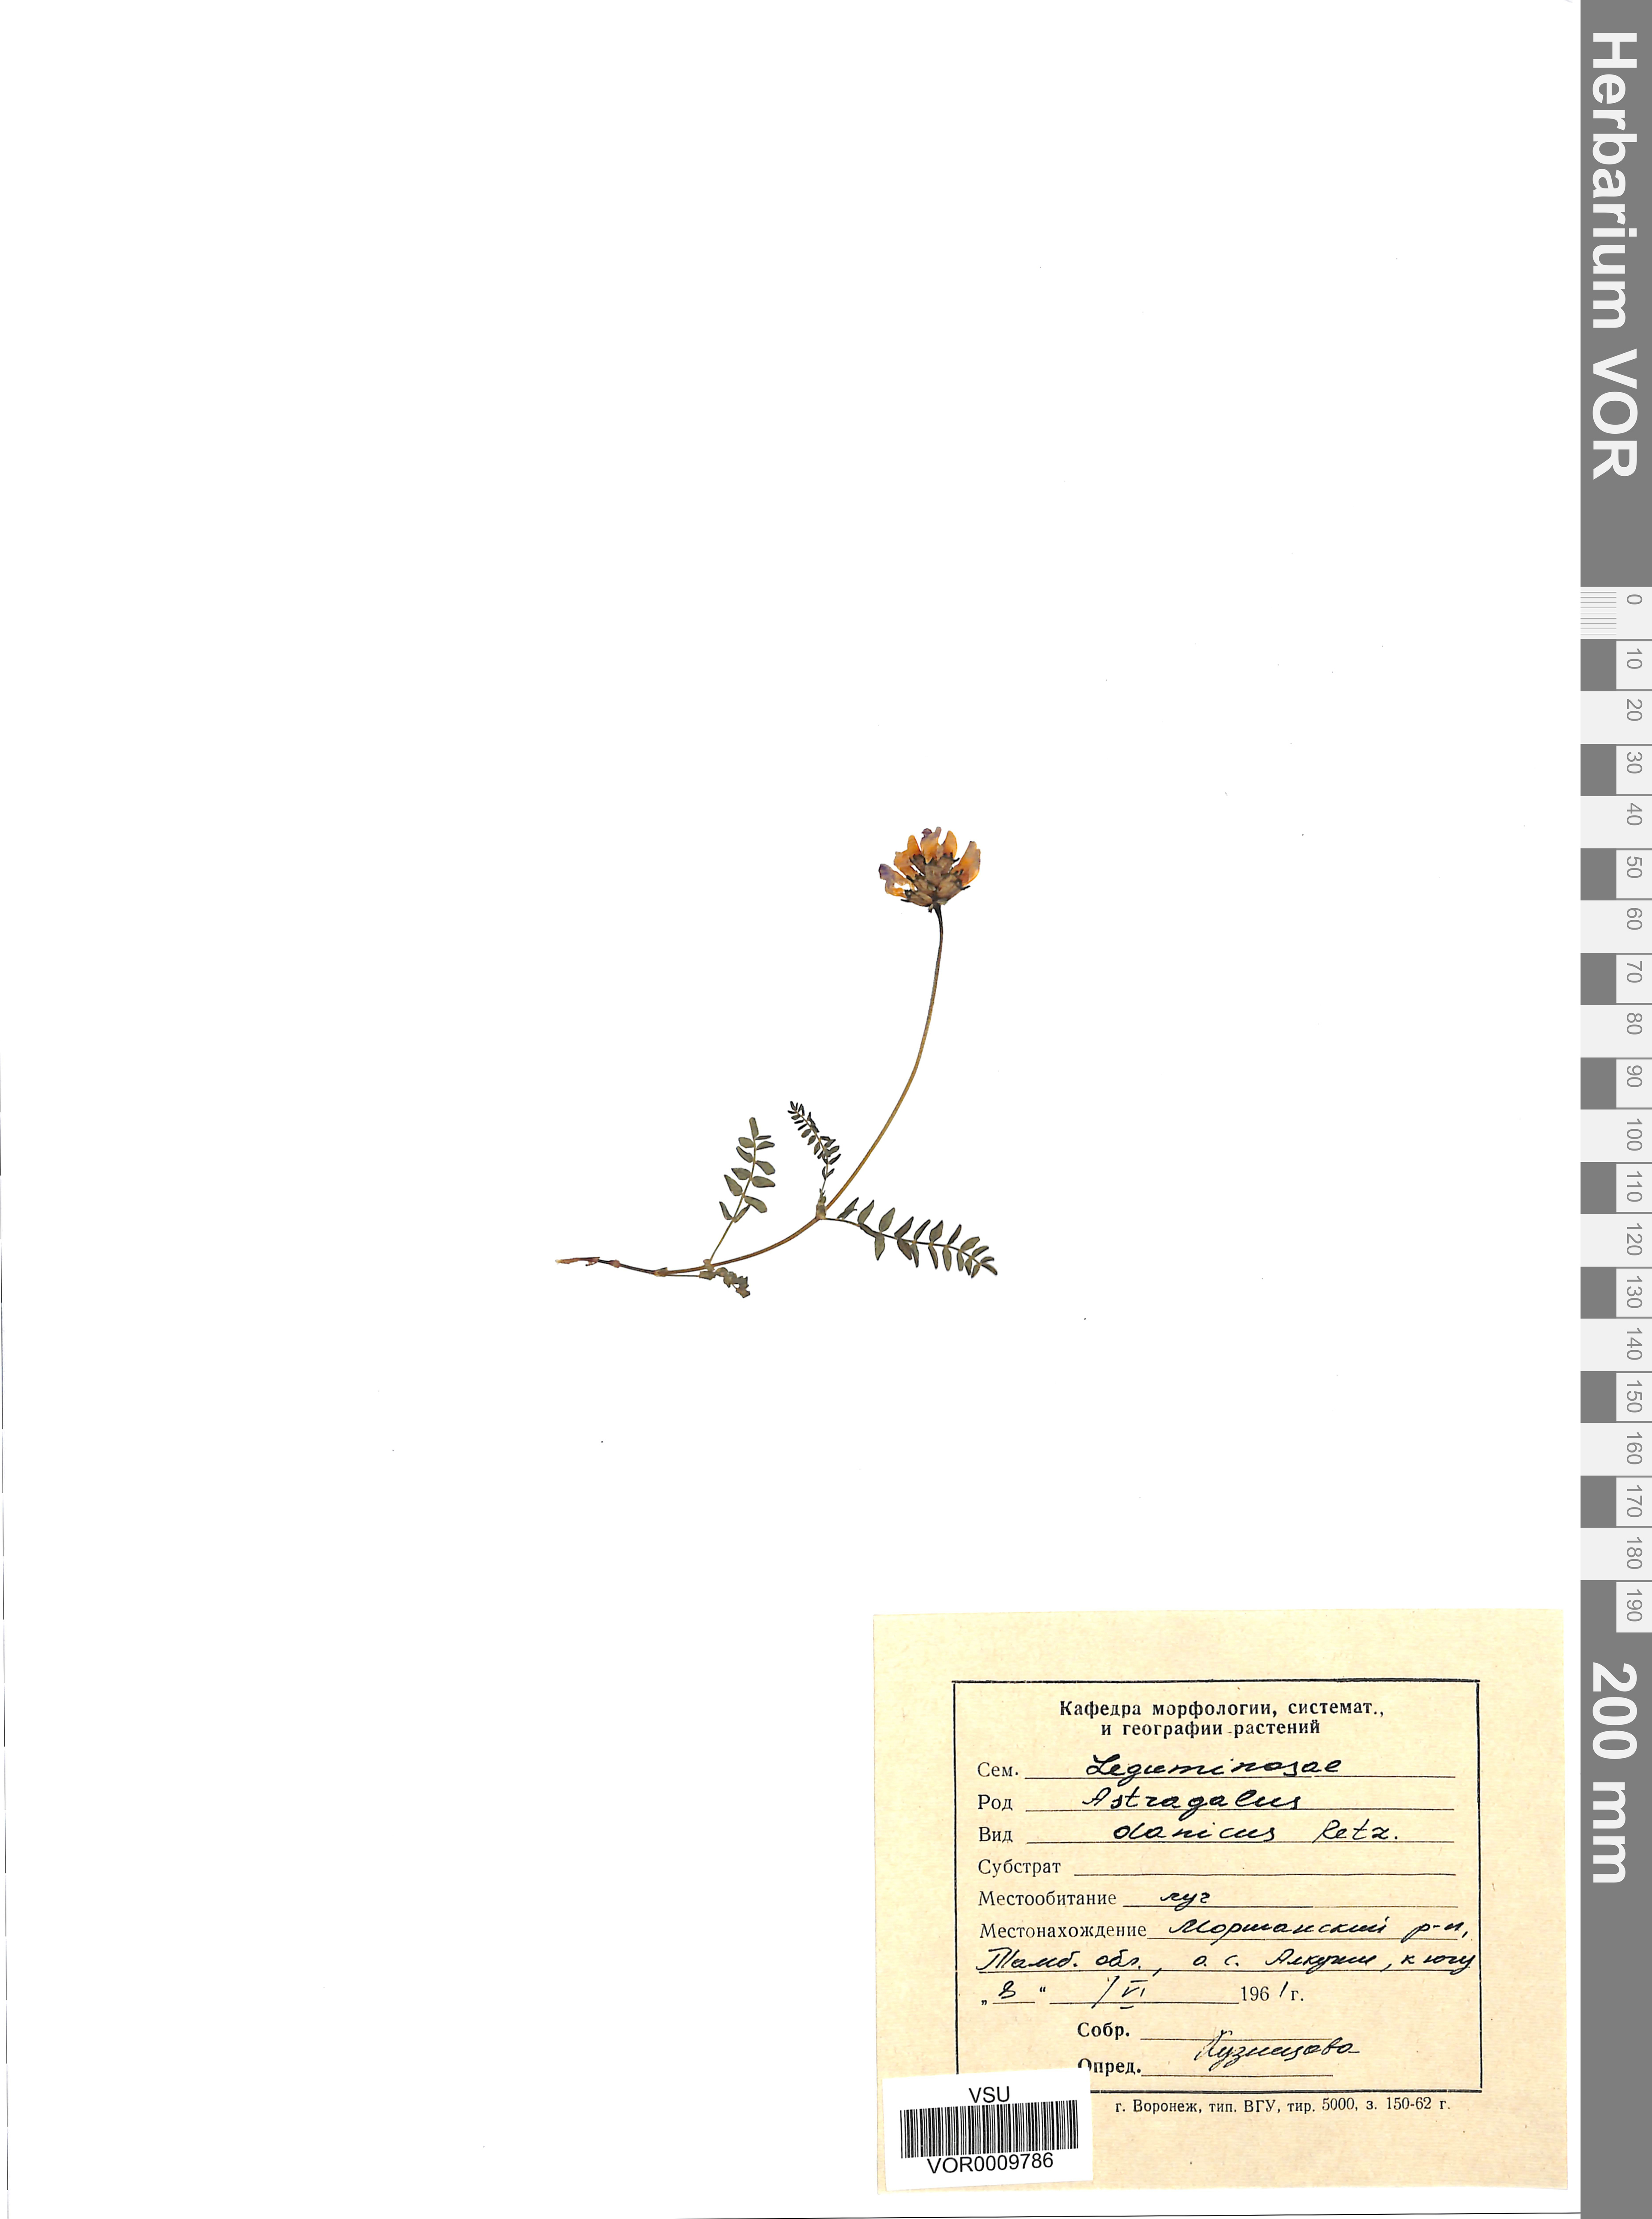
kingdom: Plantae
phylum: Tracheophyta
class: Magnoliopsida
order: Fabales
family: Fabaceae
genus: Astragalus
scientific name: Astragalus danicus
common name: Purple milk-vetch
